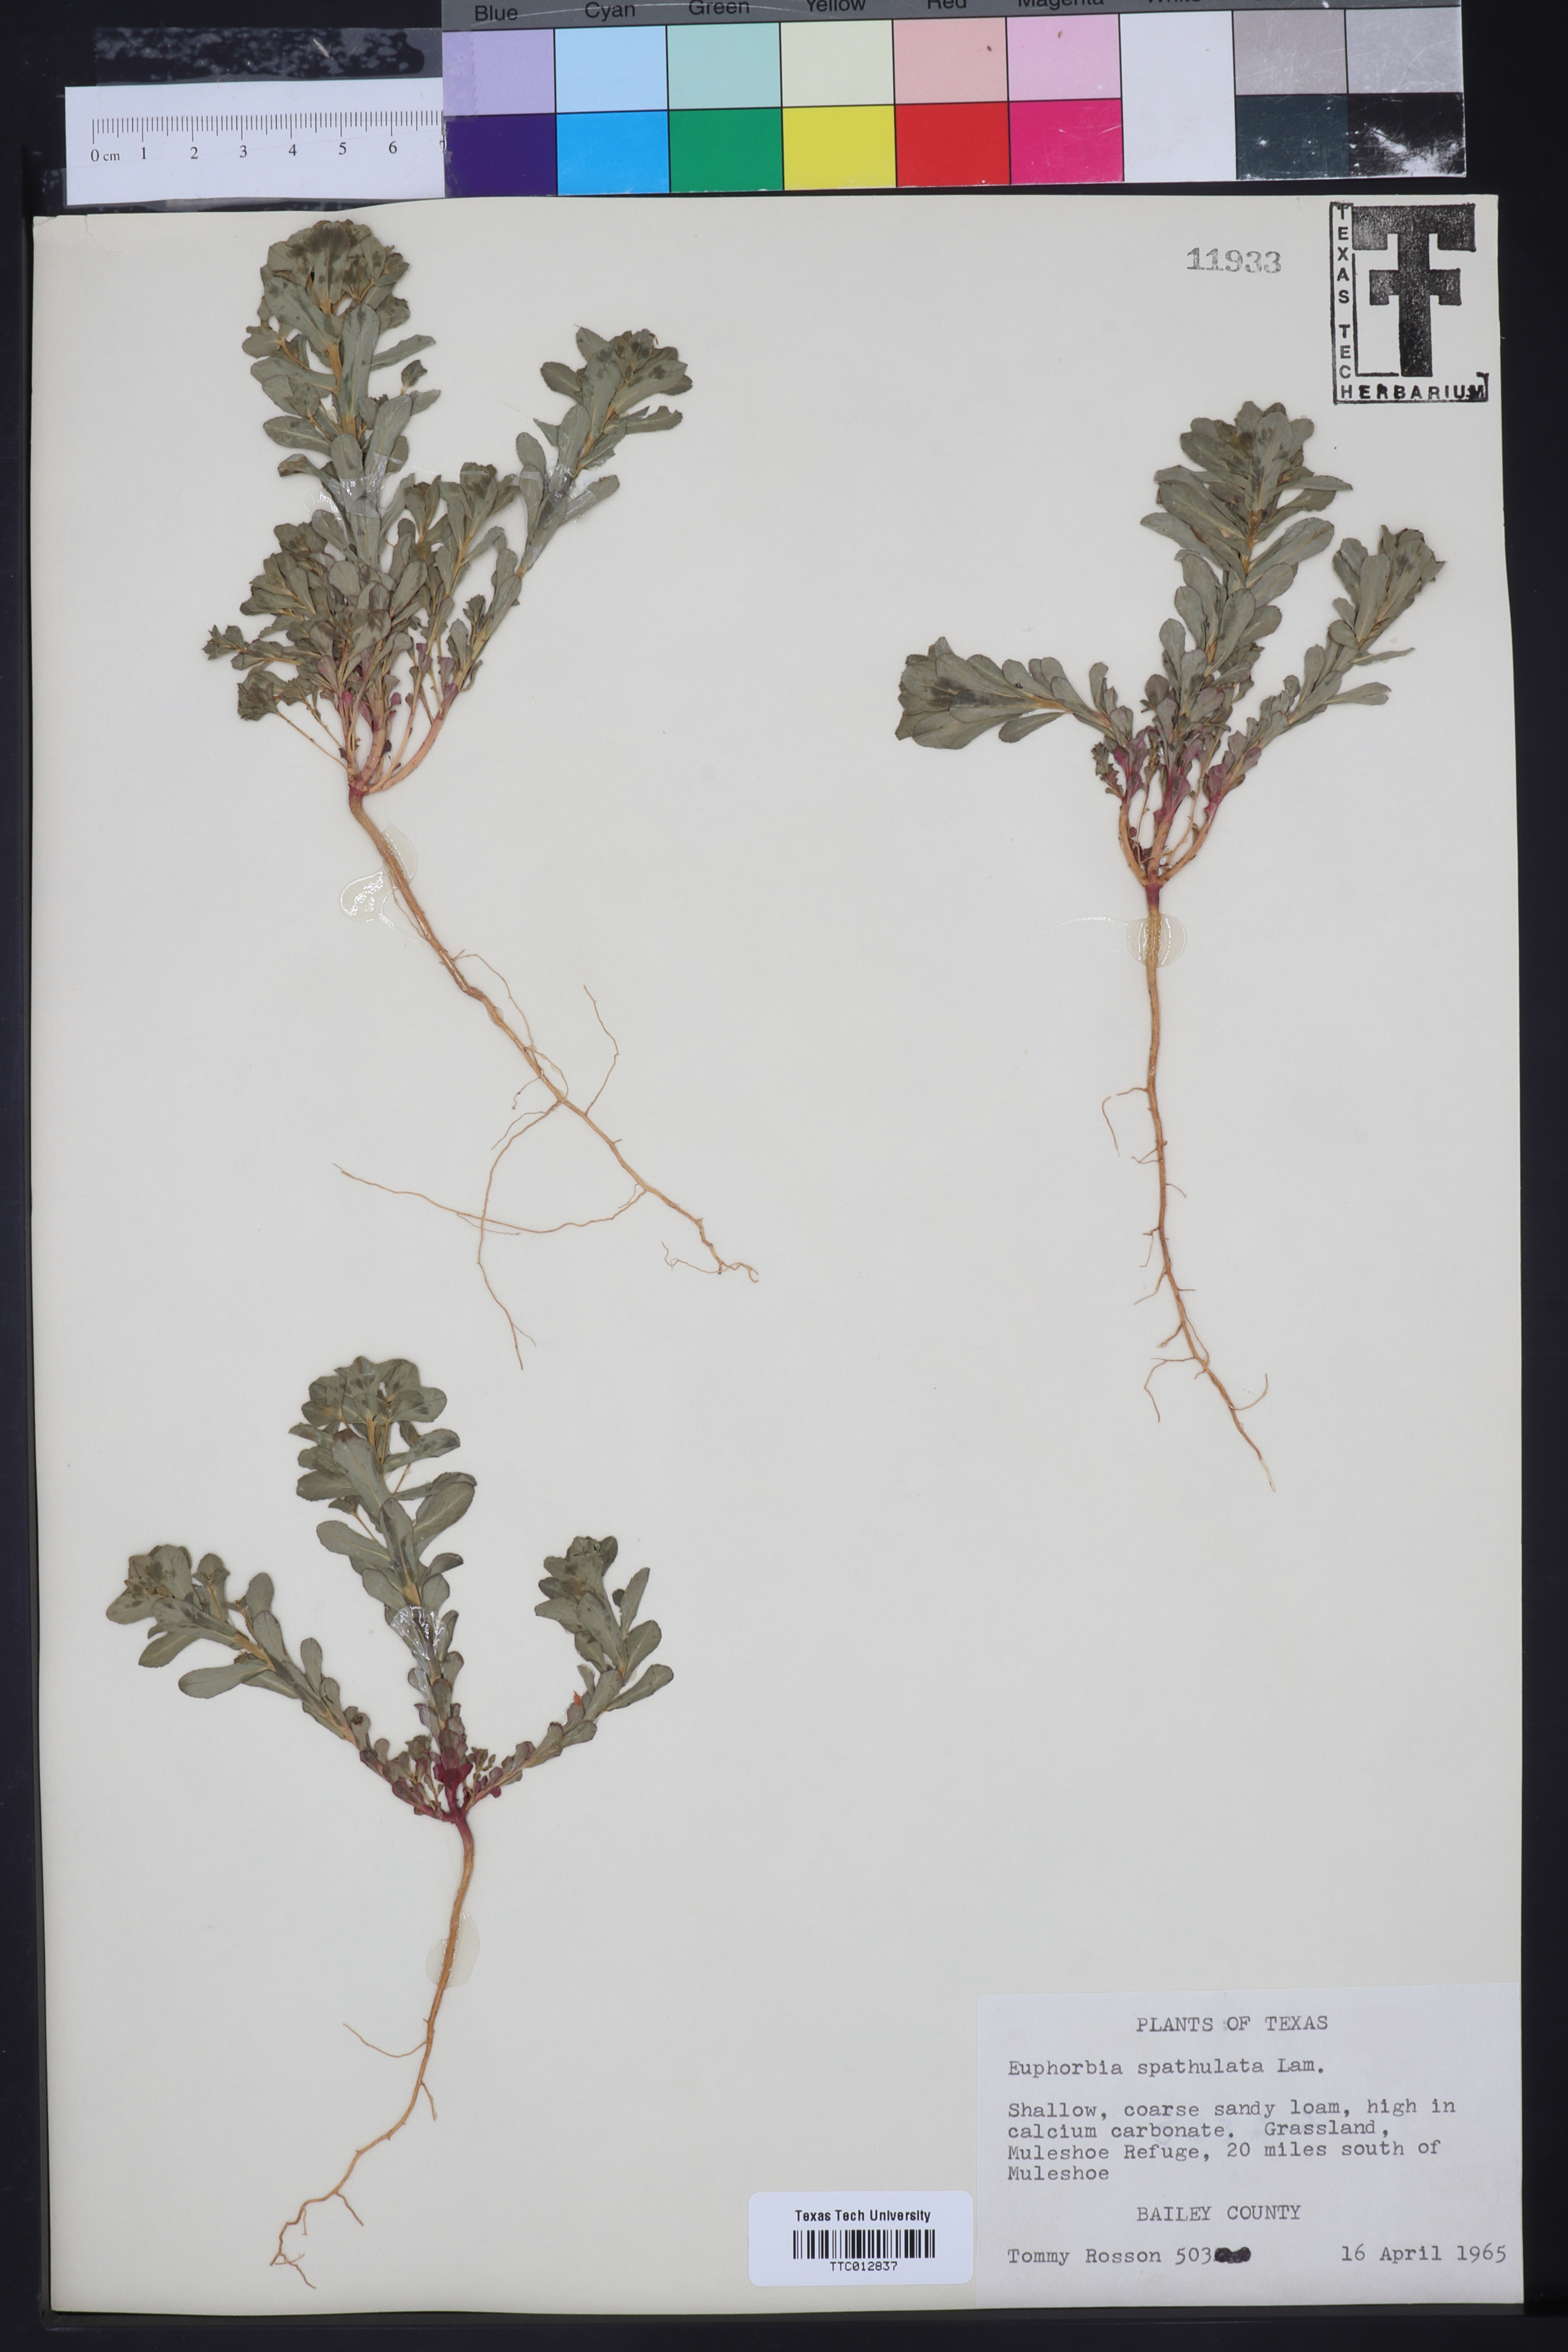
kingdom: Plantae
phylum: Tracheophyta
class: Magnoliopsida
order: Malpighiales
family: Euphorbiaceae
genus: Euphorbia
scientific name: Euphorbia spathulata
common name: Blunt spurge
